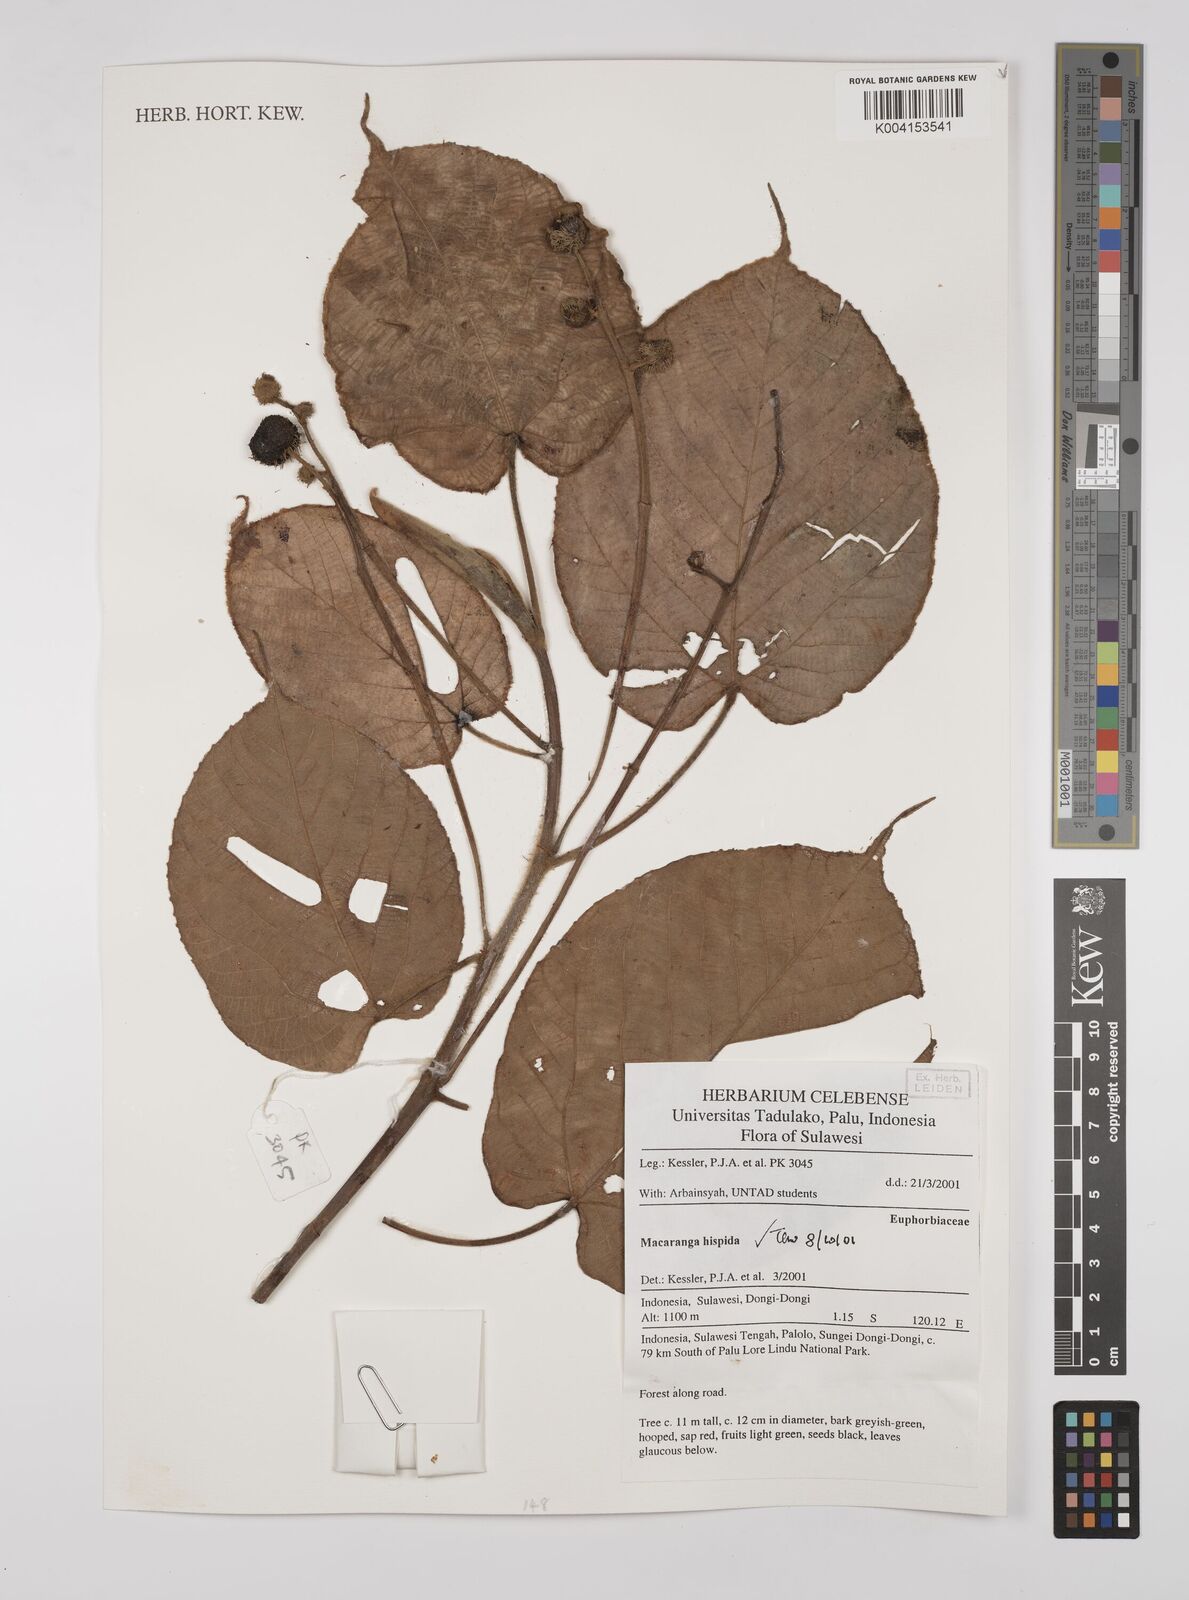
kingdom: Plantae
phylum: Tracheophyta
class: Magnoliopsida
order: Malpighiales
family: Euphorbiaceae
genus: Macaranga
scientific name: Macaranga hispida
